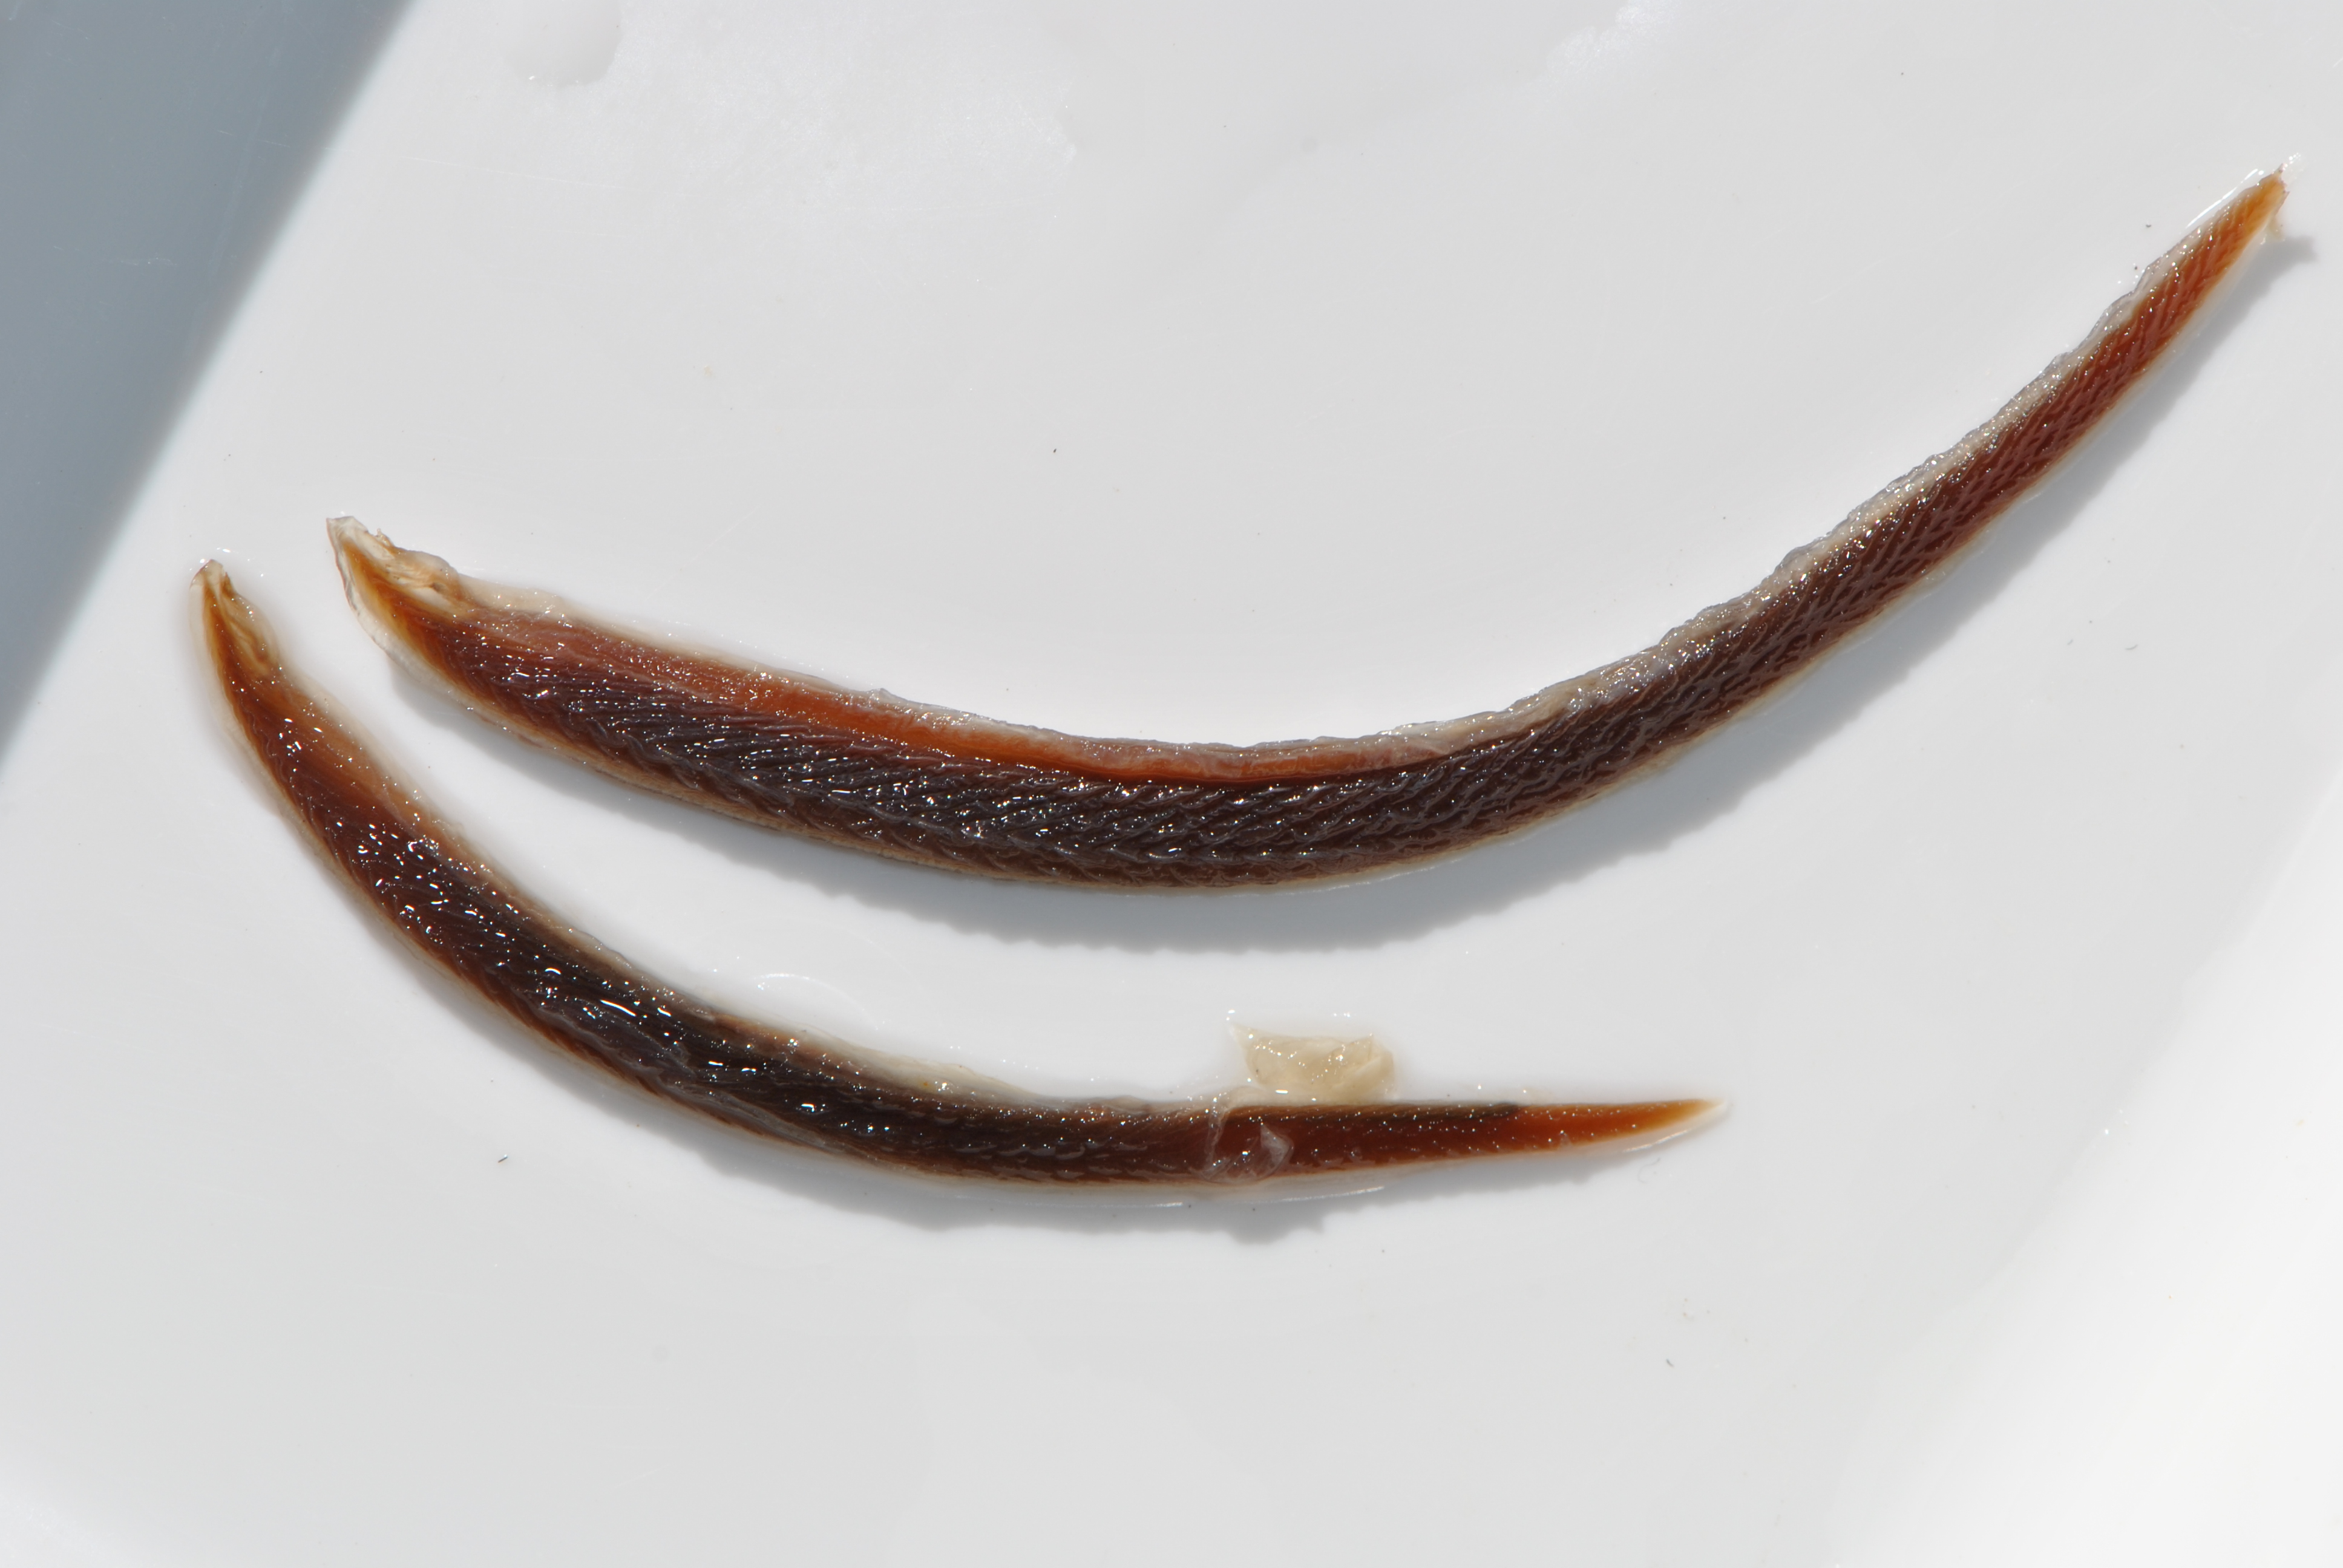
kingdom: Animalia
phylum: Chordata
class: Petromyzonti
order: Petromyzontiformes
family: Petromyzontidae
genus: Lampetra
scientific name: Lampetra planeri
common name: Brook lamprey
